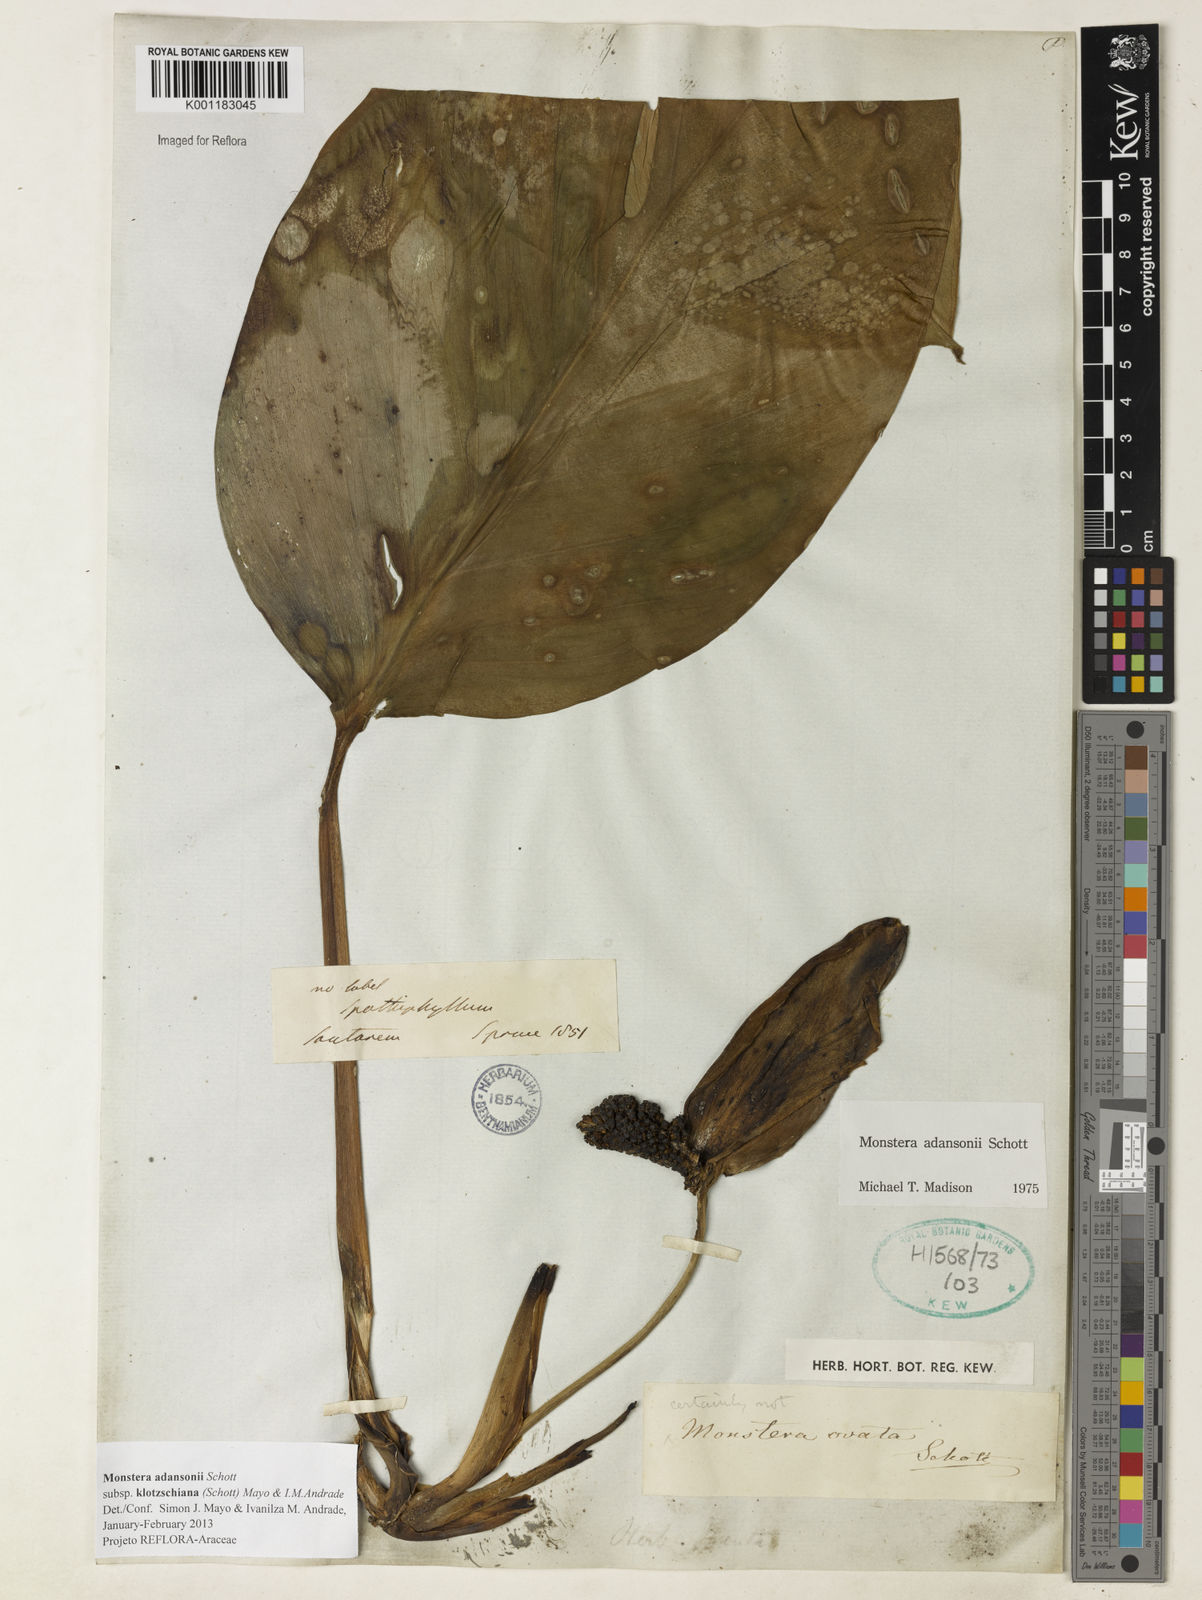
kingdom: Plantae
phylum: Tracheophyta
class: Liliopsida
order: Alismatales
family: Araceae
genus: Monstera
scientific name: Monstera adansonii
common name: Tarovine
